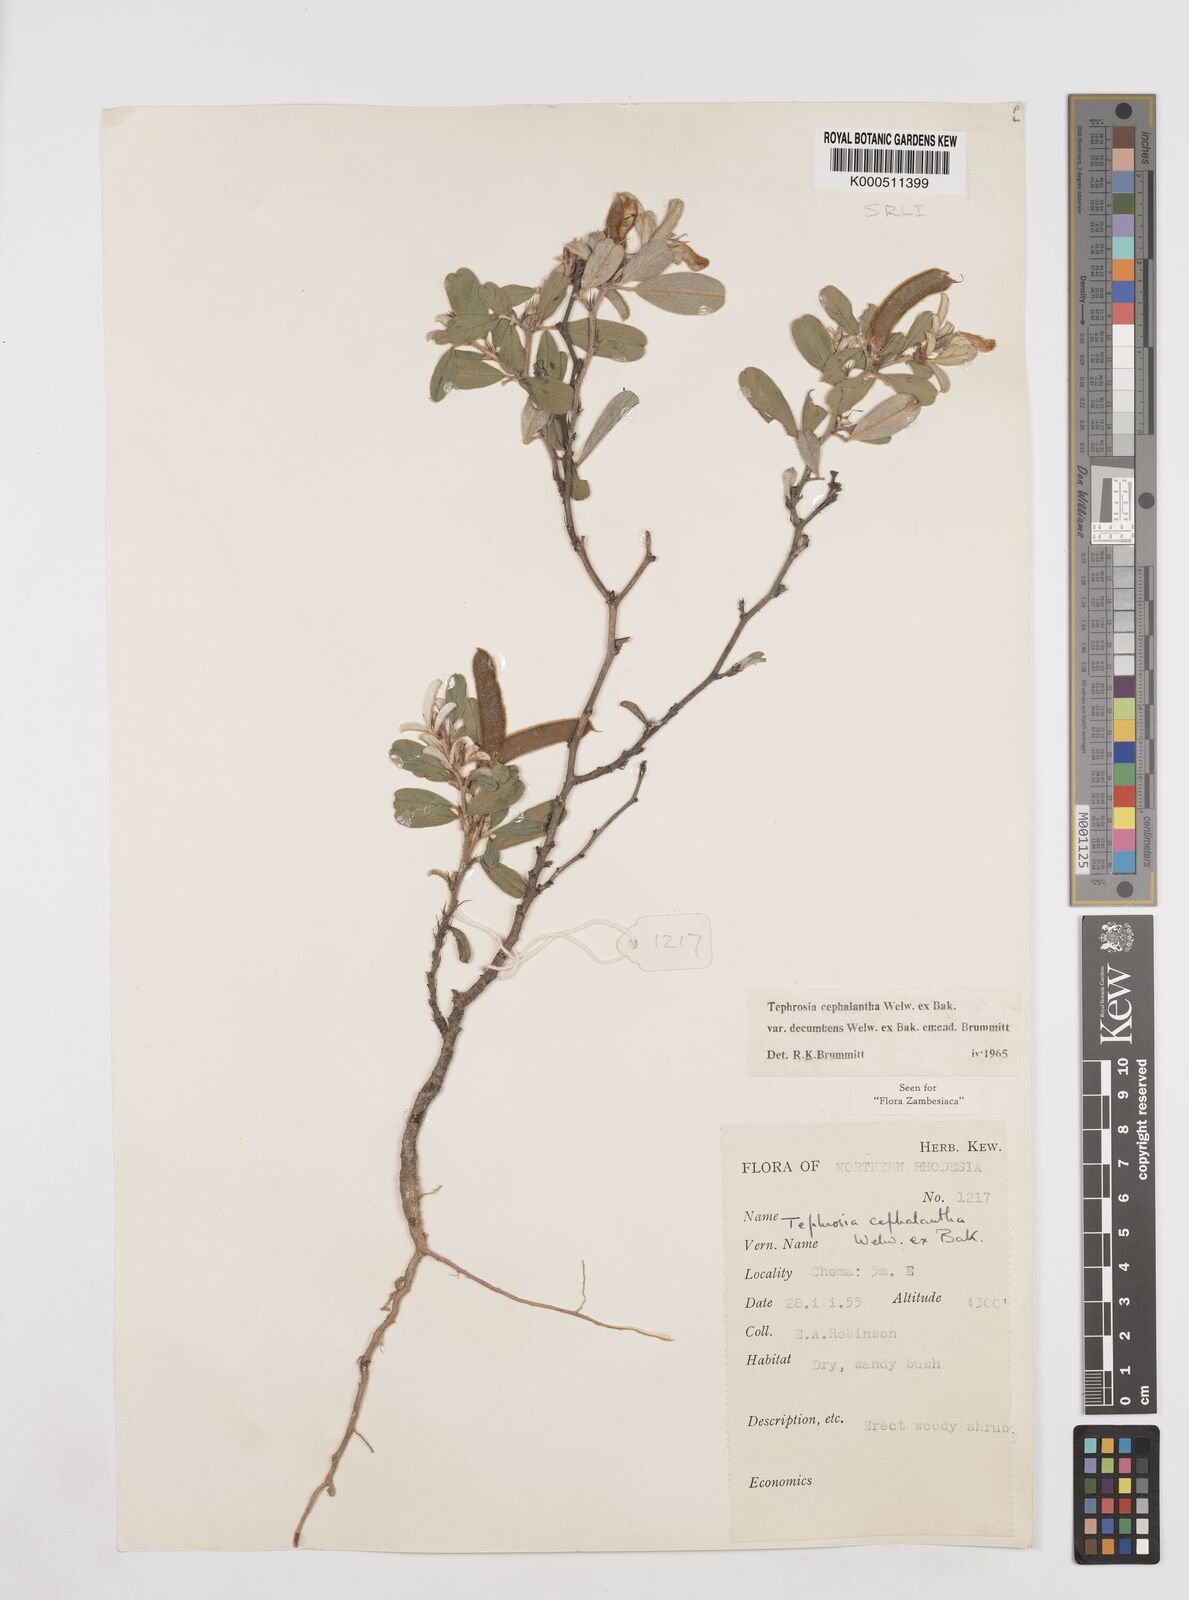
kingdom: Plantae
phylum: Tracheophyta
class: Magnoliopsida
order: Fabales
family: Fabaceae
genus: Tephrosia
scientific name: Tephrosia
